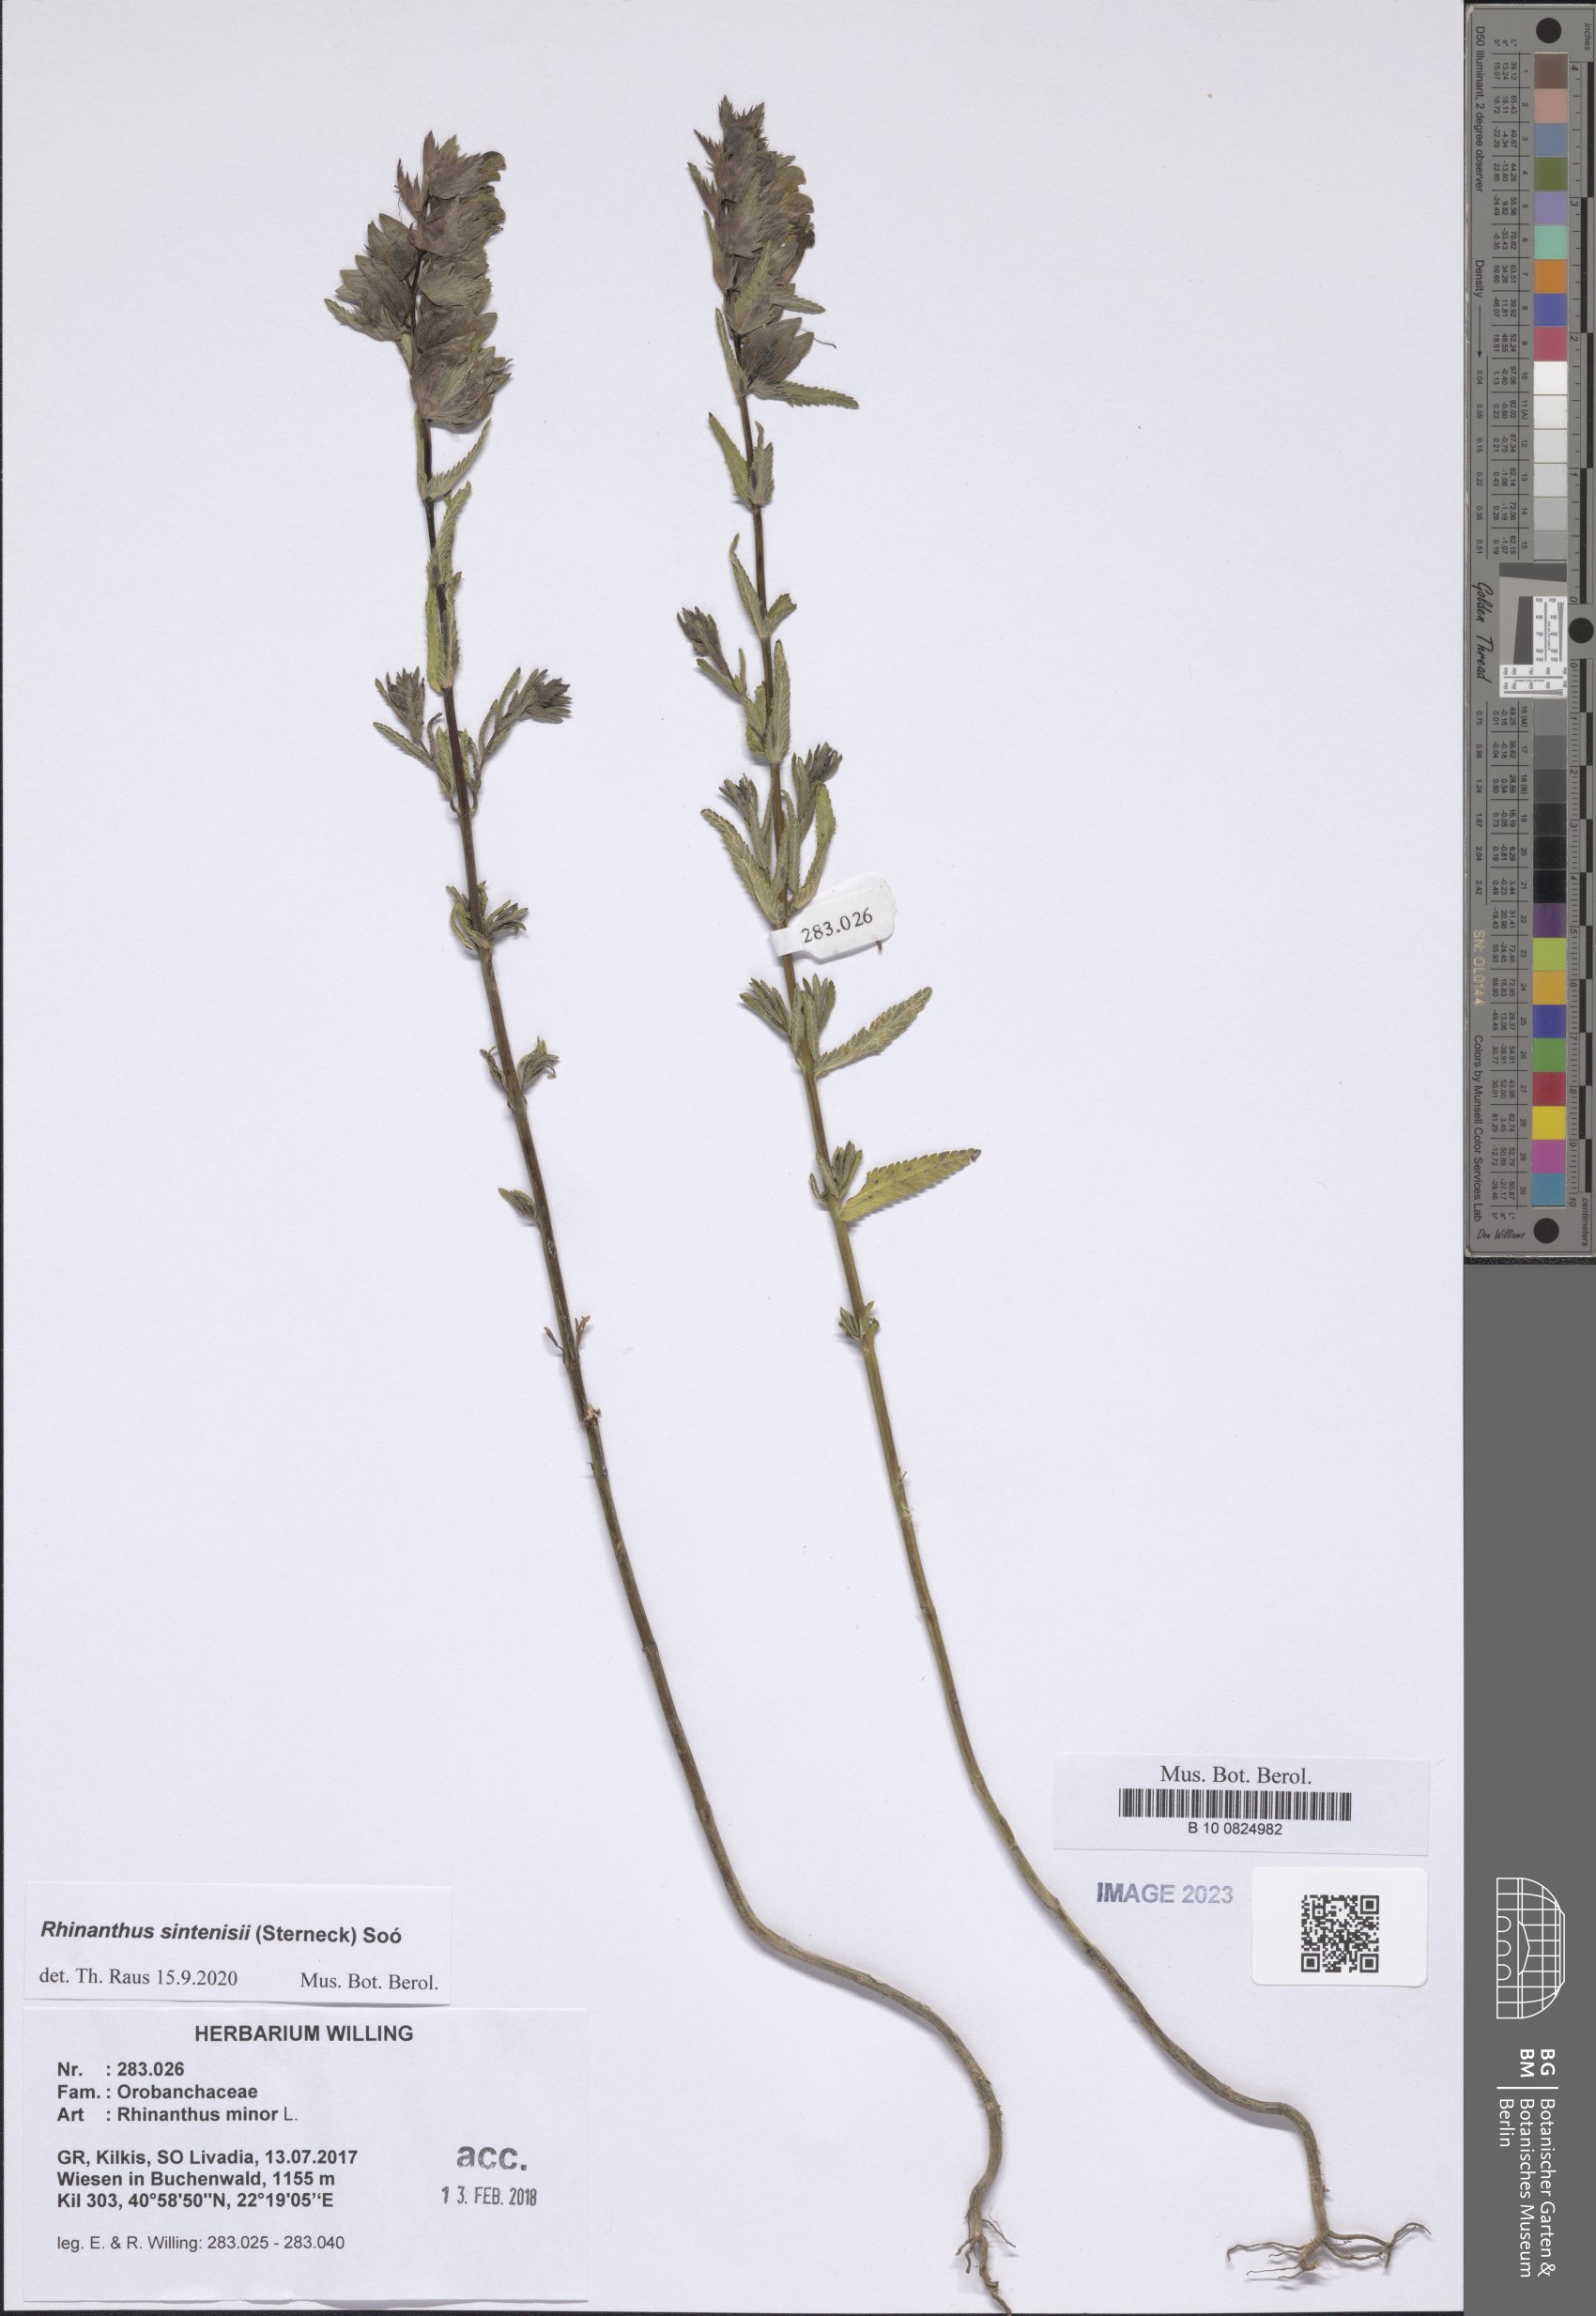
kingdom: Plantae
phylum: Tracheophyta
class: Magnoliopsida
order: Lamiales
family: Orobanchaceae
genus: Rhinanthus
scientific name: Rhinanthus sintenisii
